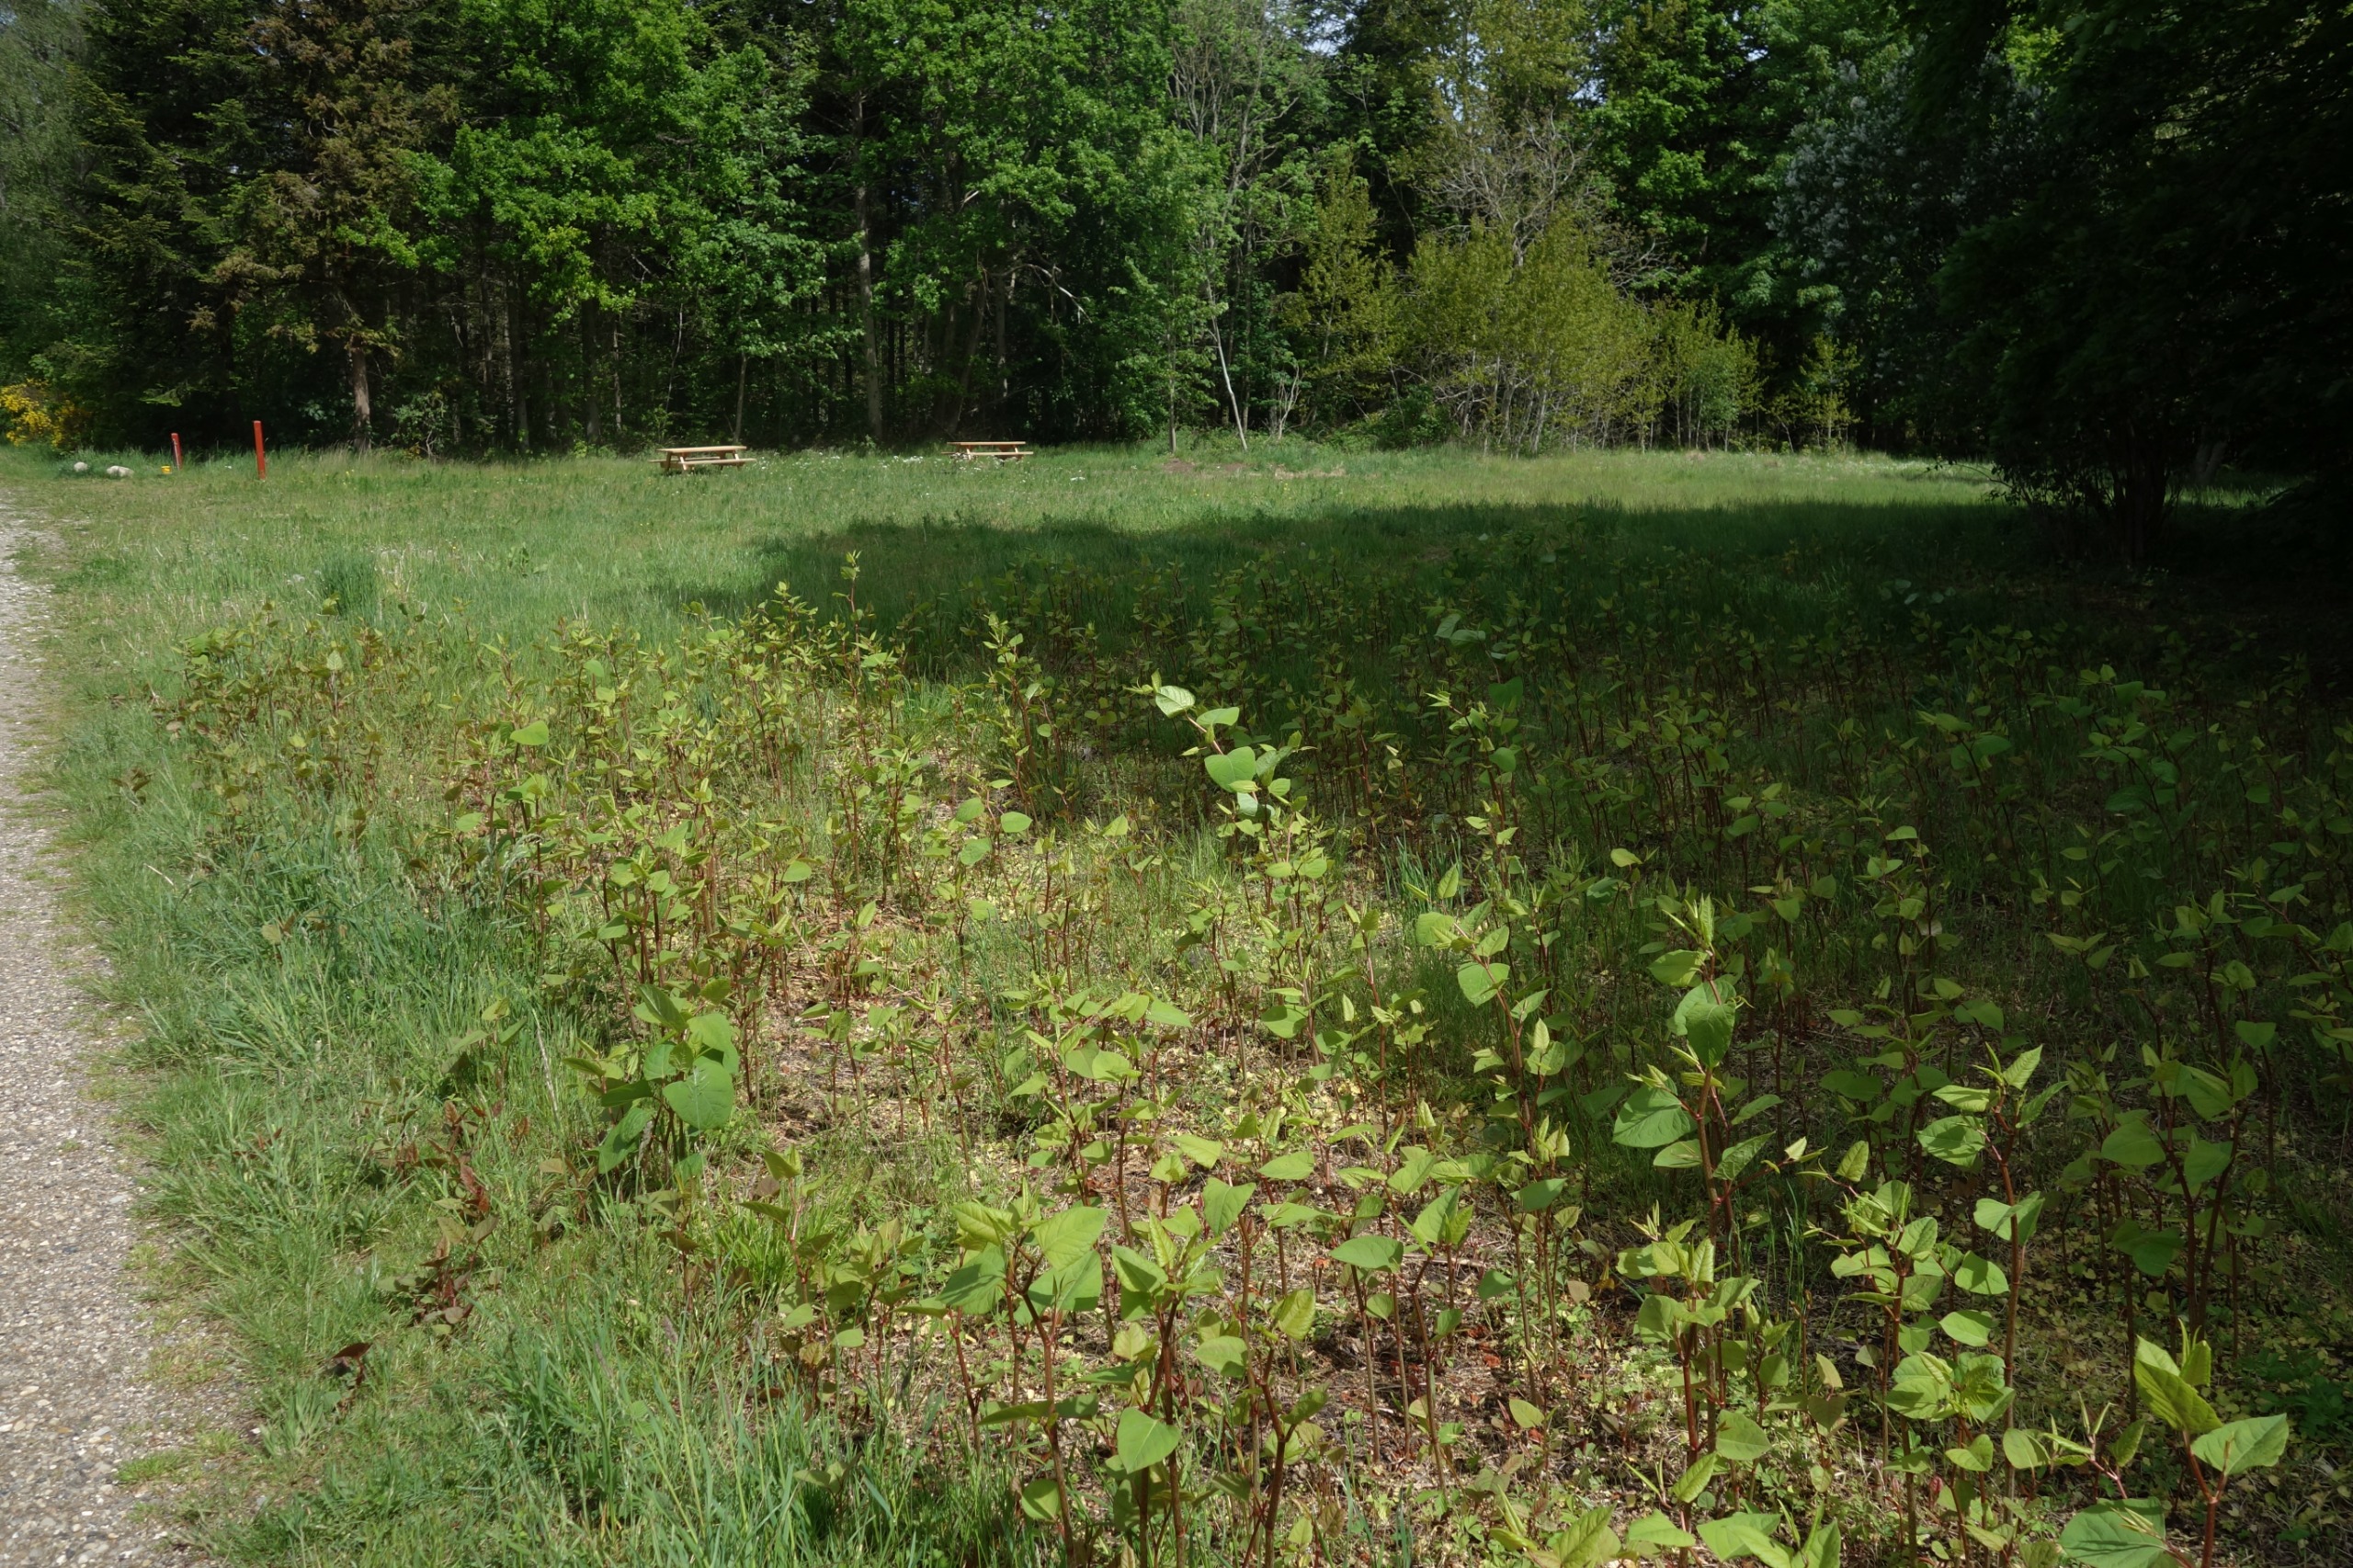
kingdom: Plantae
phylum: Tracheophyta
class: Magnoliopsida
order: Caryophyllales
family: Polygonaceae
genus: Reynoutria
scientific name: Reynoutria
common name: Pileurt (Reynoutria-slægten)
